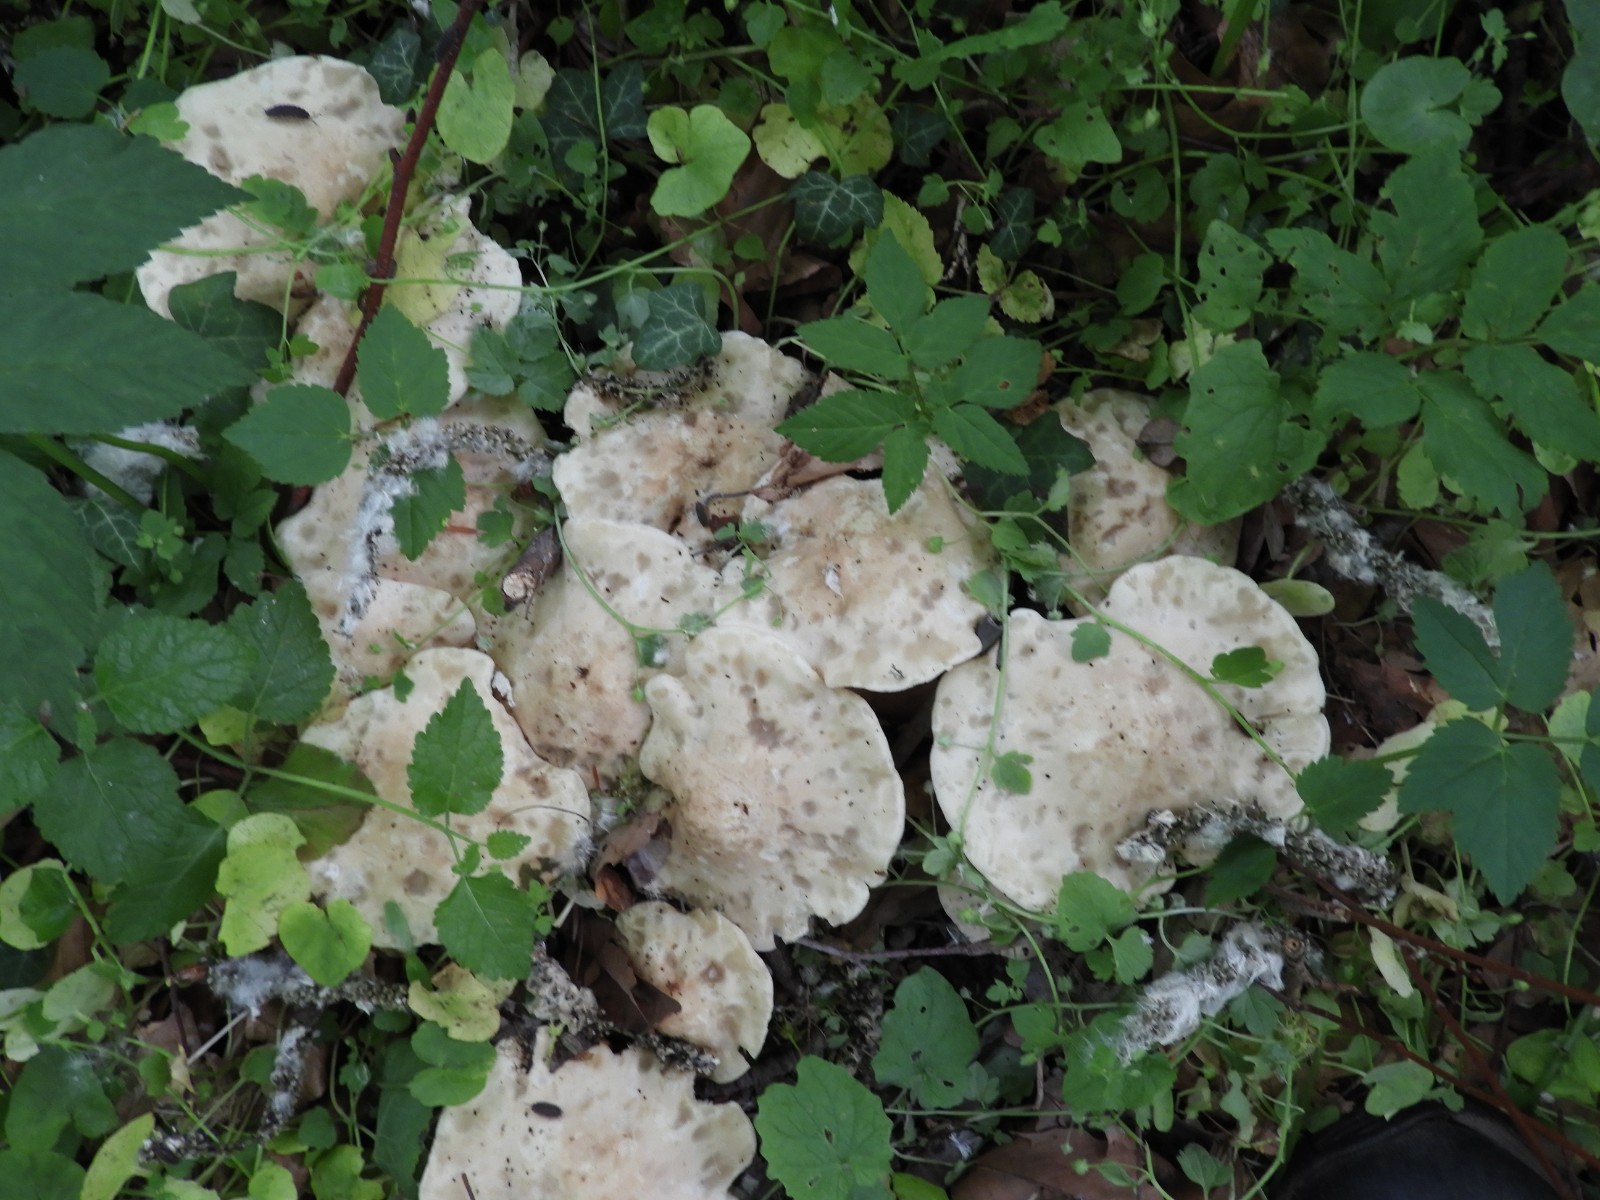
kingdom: Fungi
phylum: Basidiomycota
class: Agaricomycetes
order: Agaricales
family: Lyophyllaceae
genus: Calocybe
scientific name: Calocybe gambosa
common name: vårmusseron
